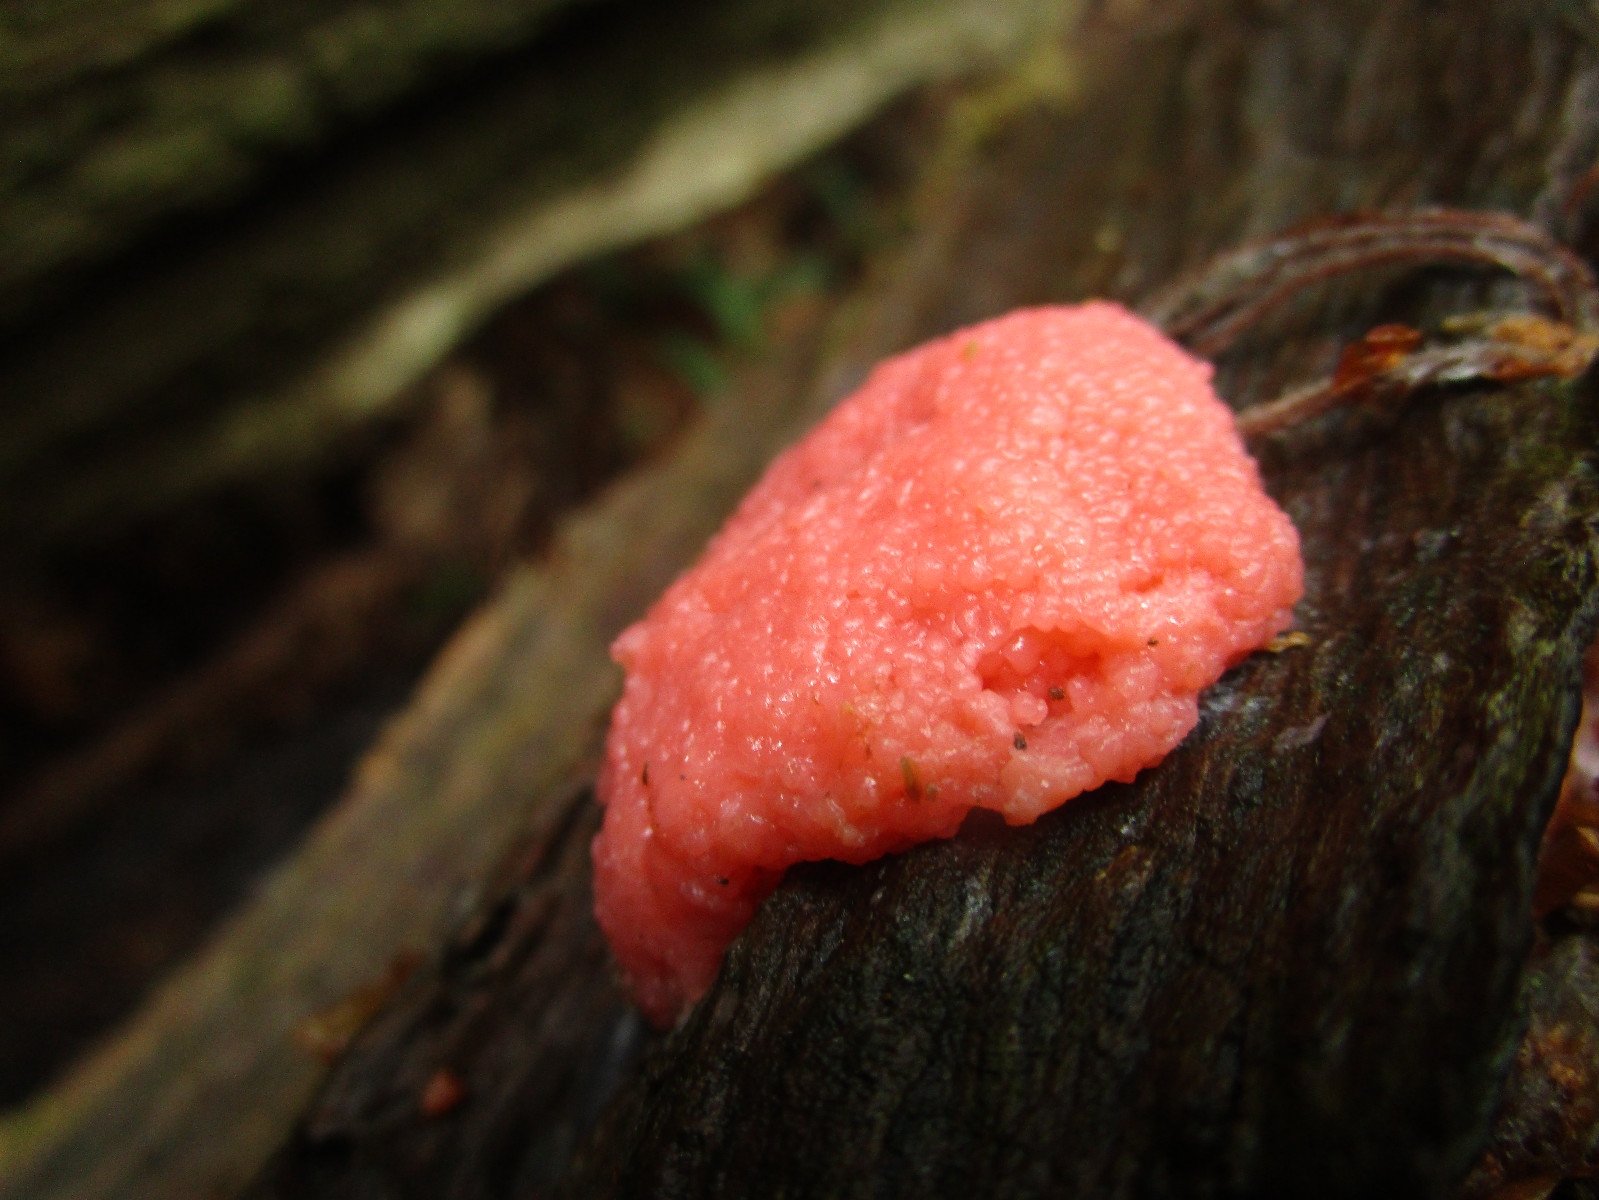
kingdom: Protozoa
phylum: Mycetozoa
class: Myxomycetes
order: Cribrariales
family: Tubiferaceae
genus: Tubifera
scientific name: Tubifera ferruginosa
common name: kanel-støvrør
